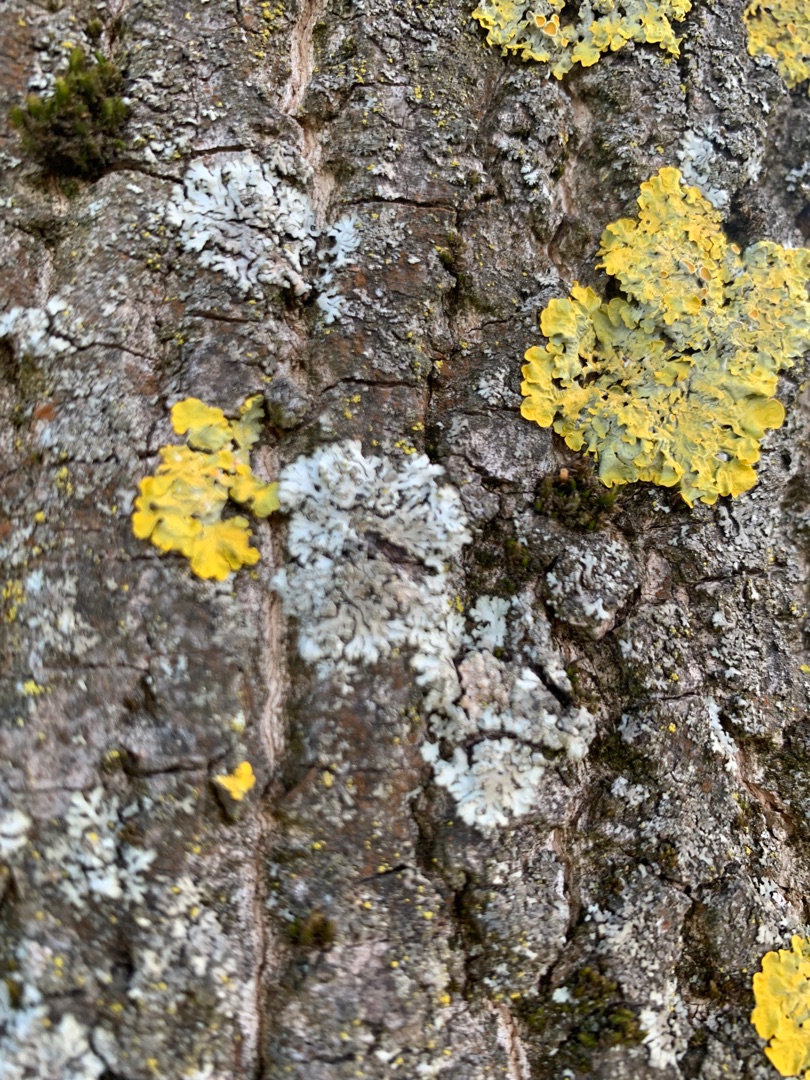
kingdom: Fungi
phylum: Ascomycota
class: Lecanoromycetes
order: Caliciales
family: Physciaceae
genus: Physconia
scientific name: Physconia
